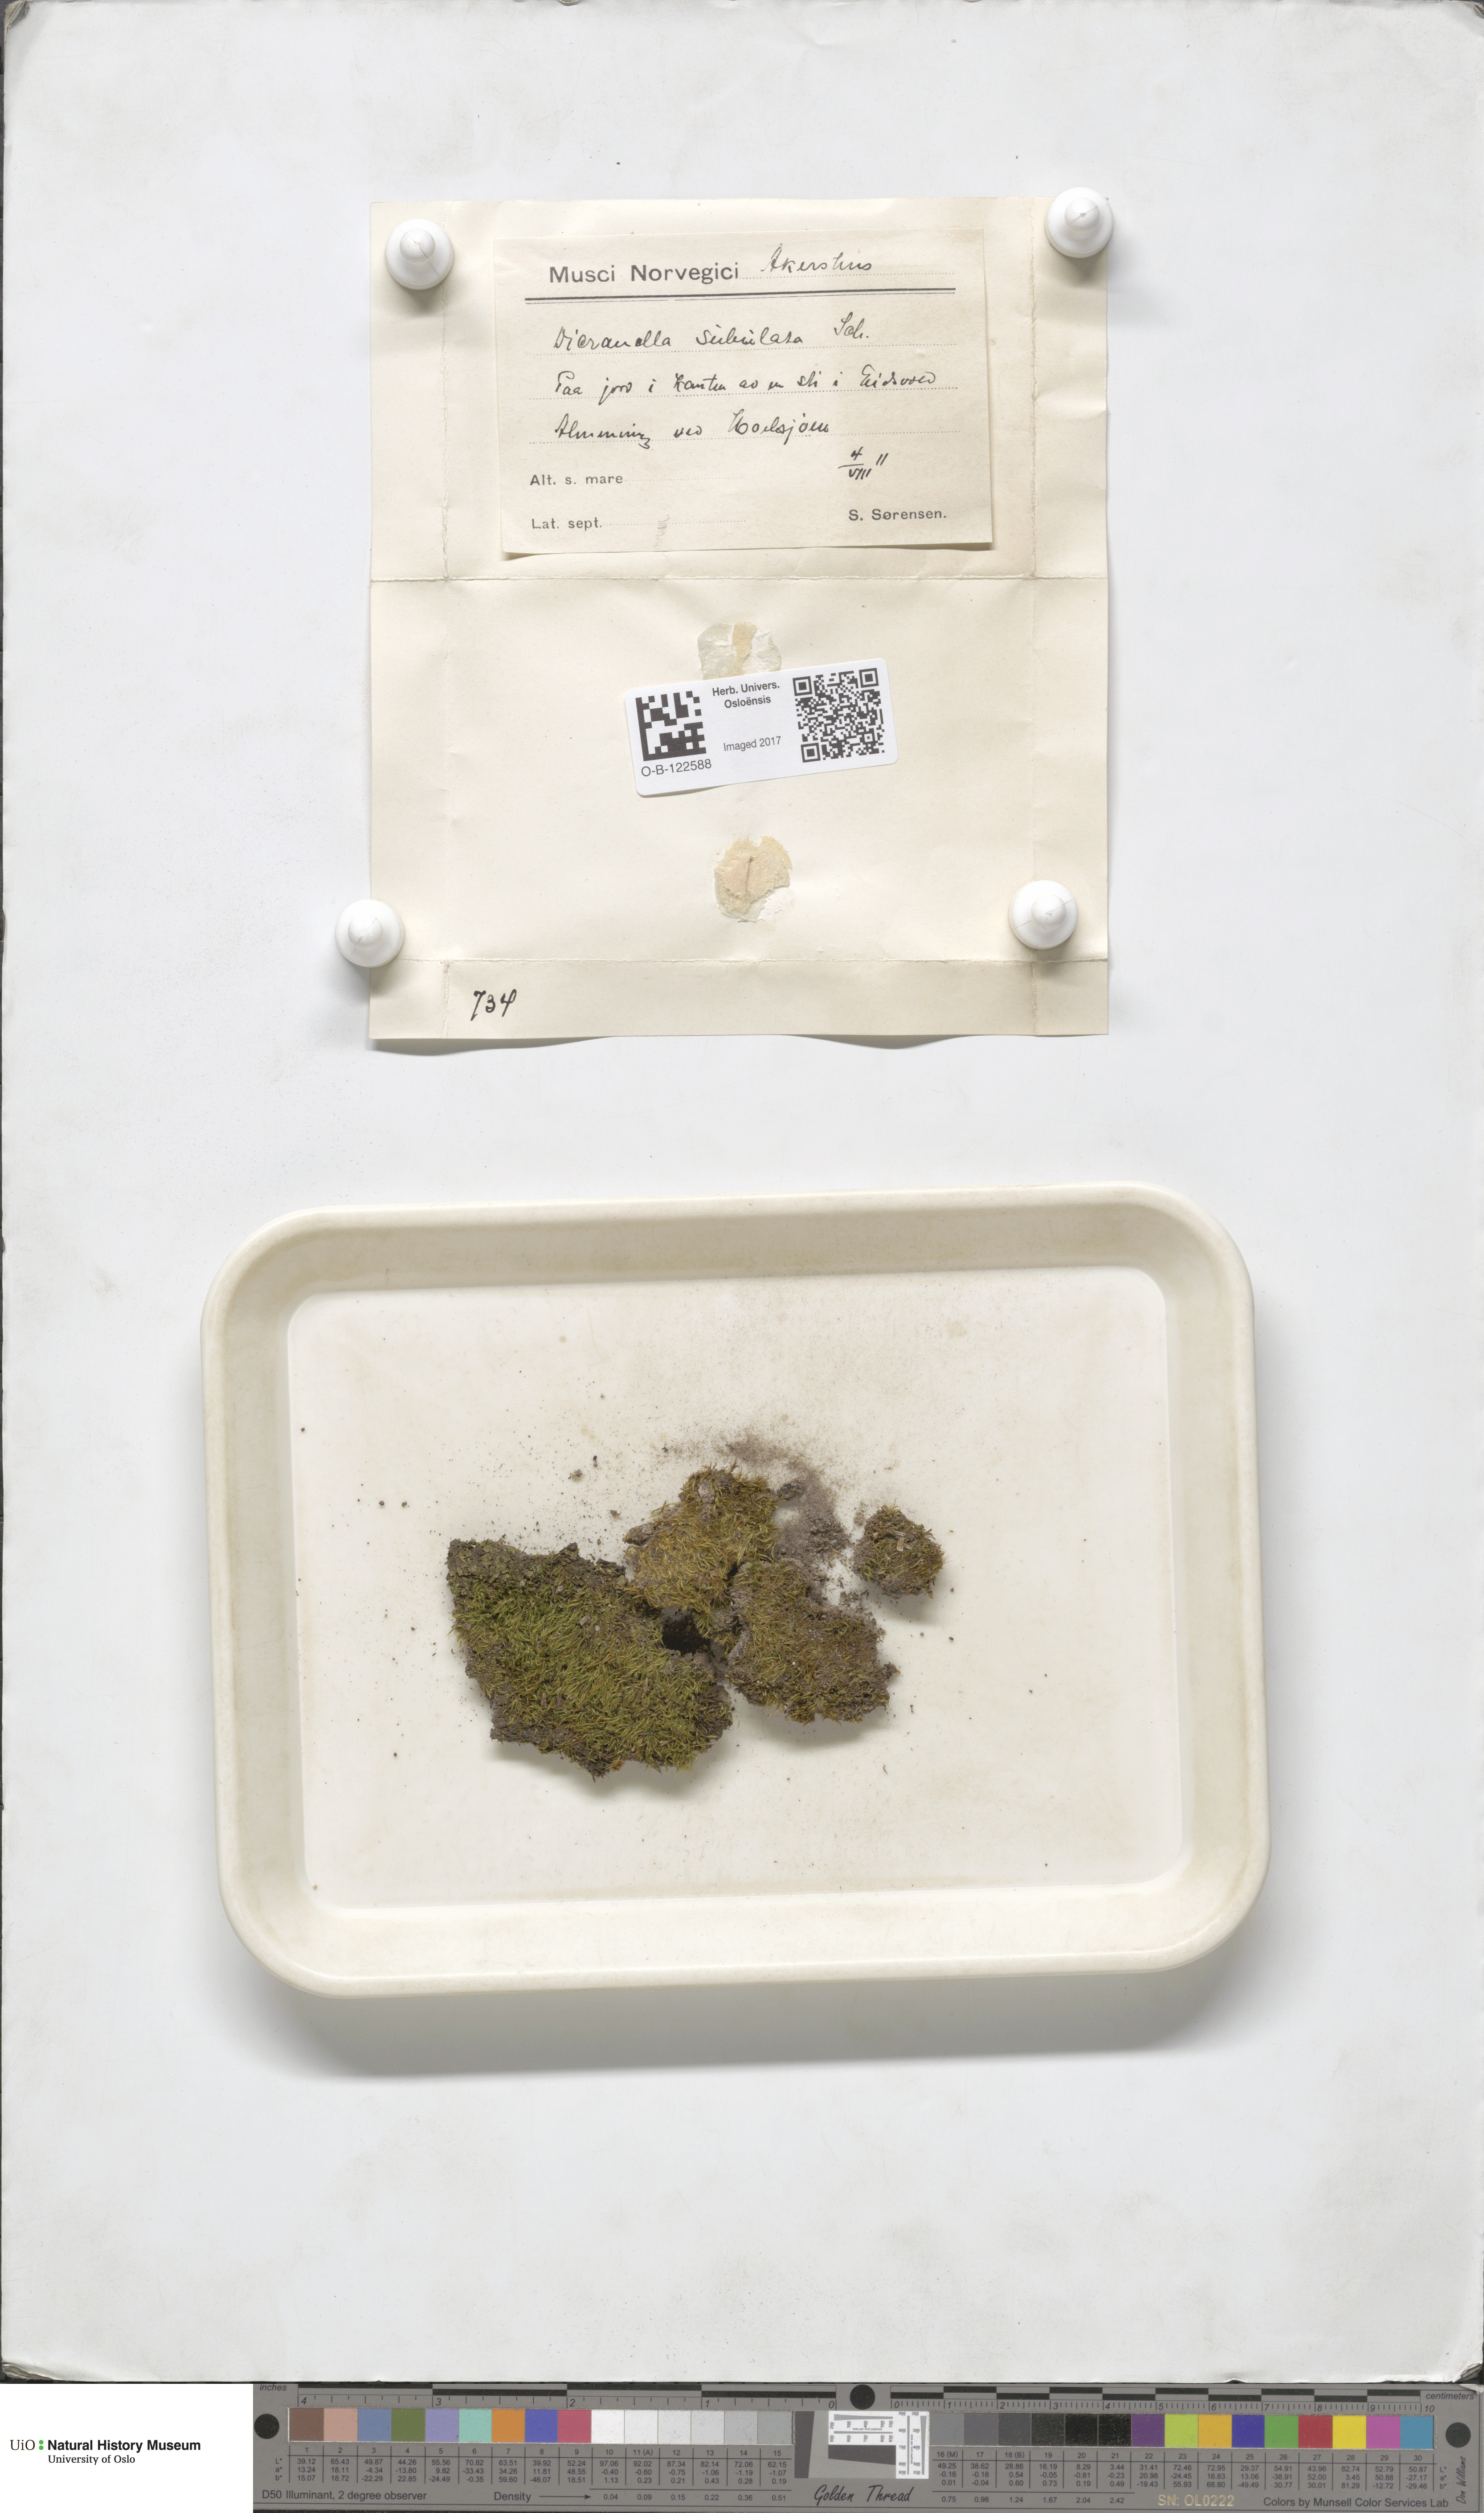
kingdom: Plantae
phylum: Bryophyta
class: Bryopsida
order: Dicranales
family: Dicranellaceae
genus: Dicranella
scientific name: Dicranella subulata
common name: Awl-leaved forklet moss
